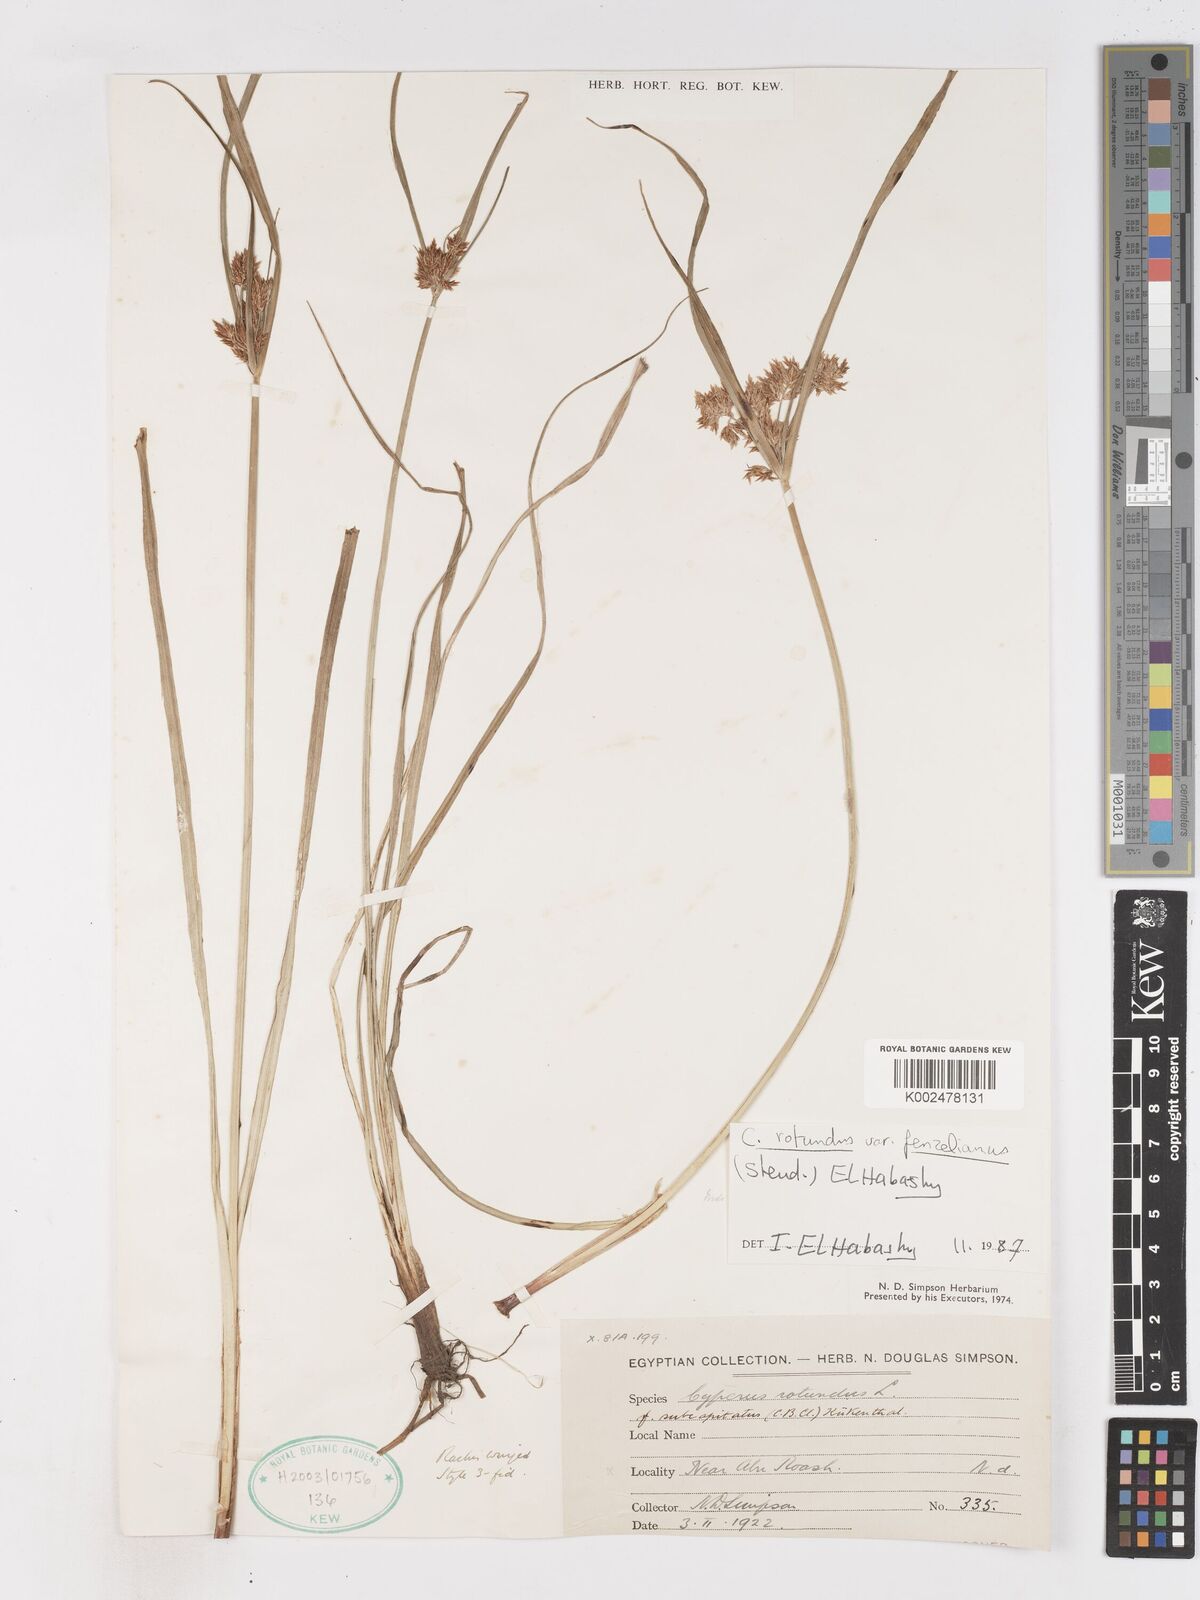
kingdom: Plantae
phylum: Tracheophyta
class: Liliopsida
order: Poales
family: Cyperaceae
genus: Cyperus
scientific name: Cyperus rotundus
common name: Nutgrass
